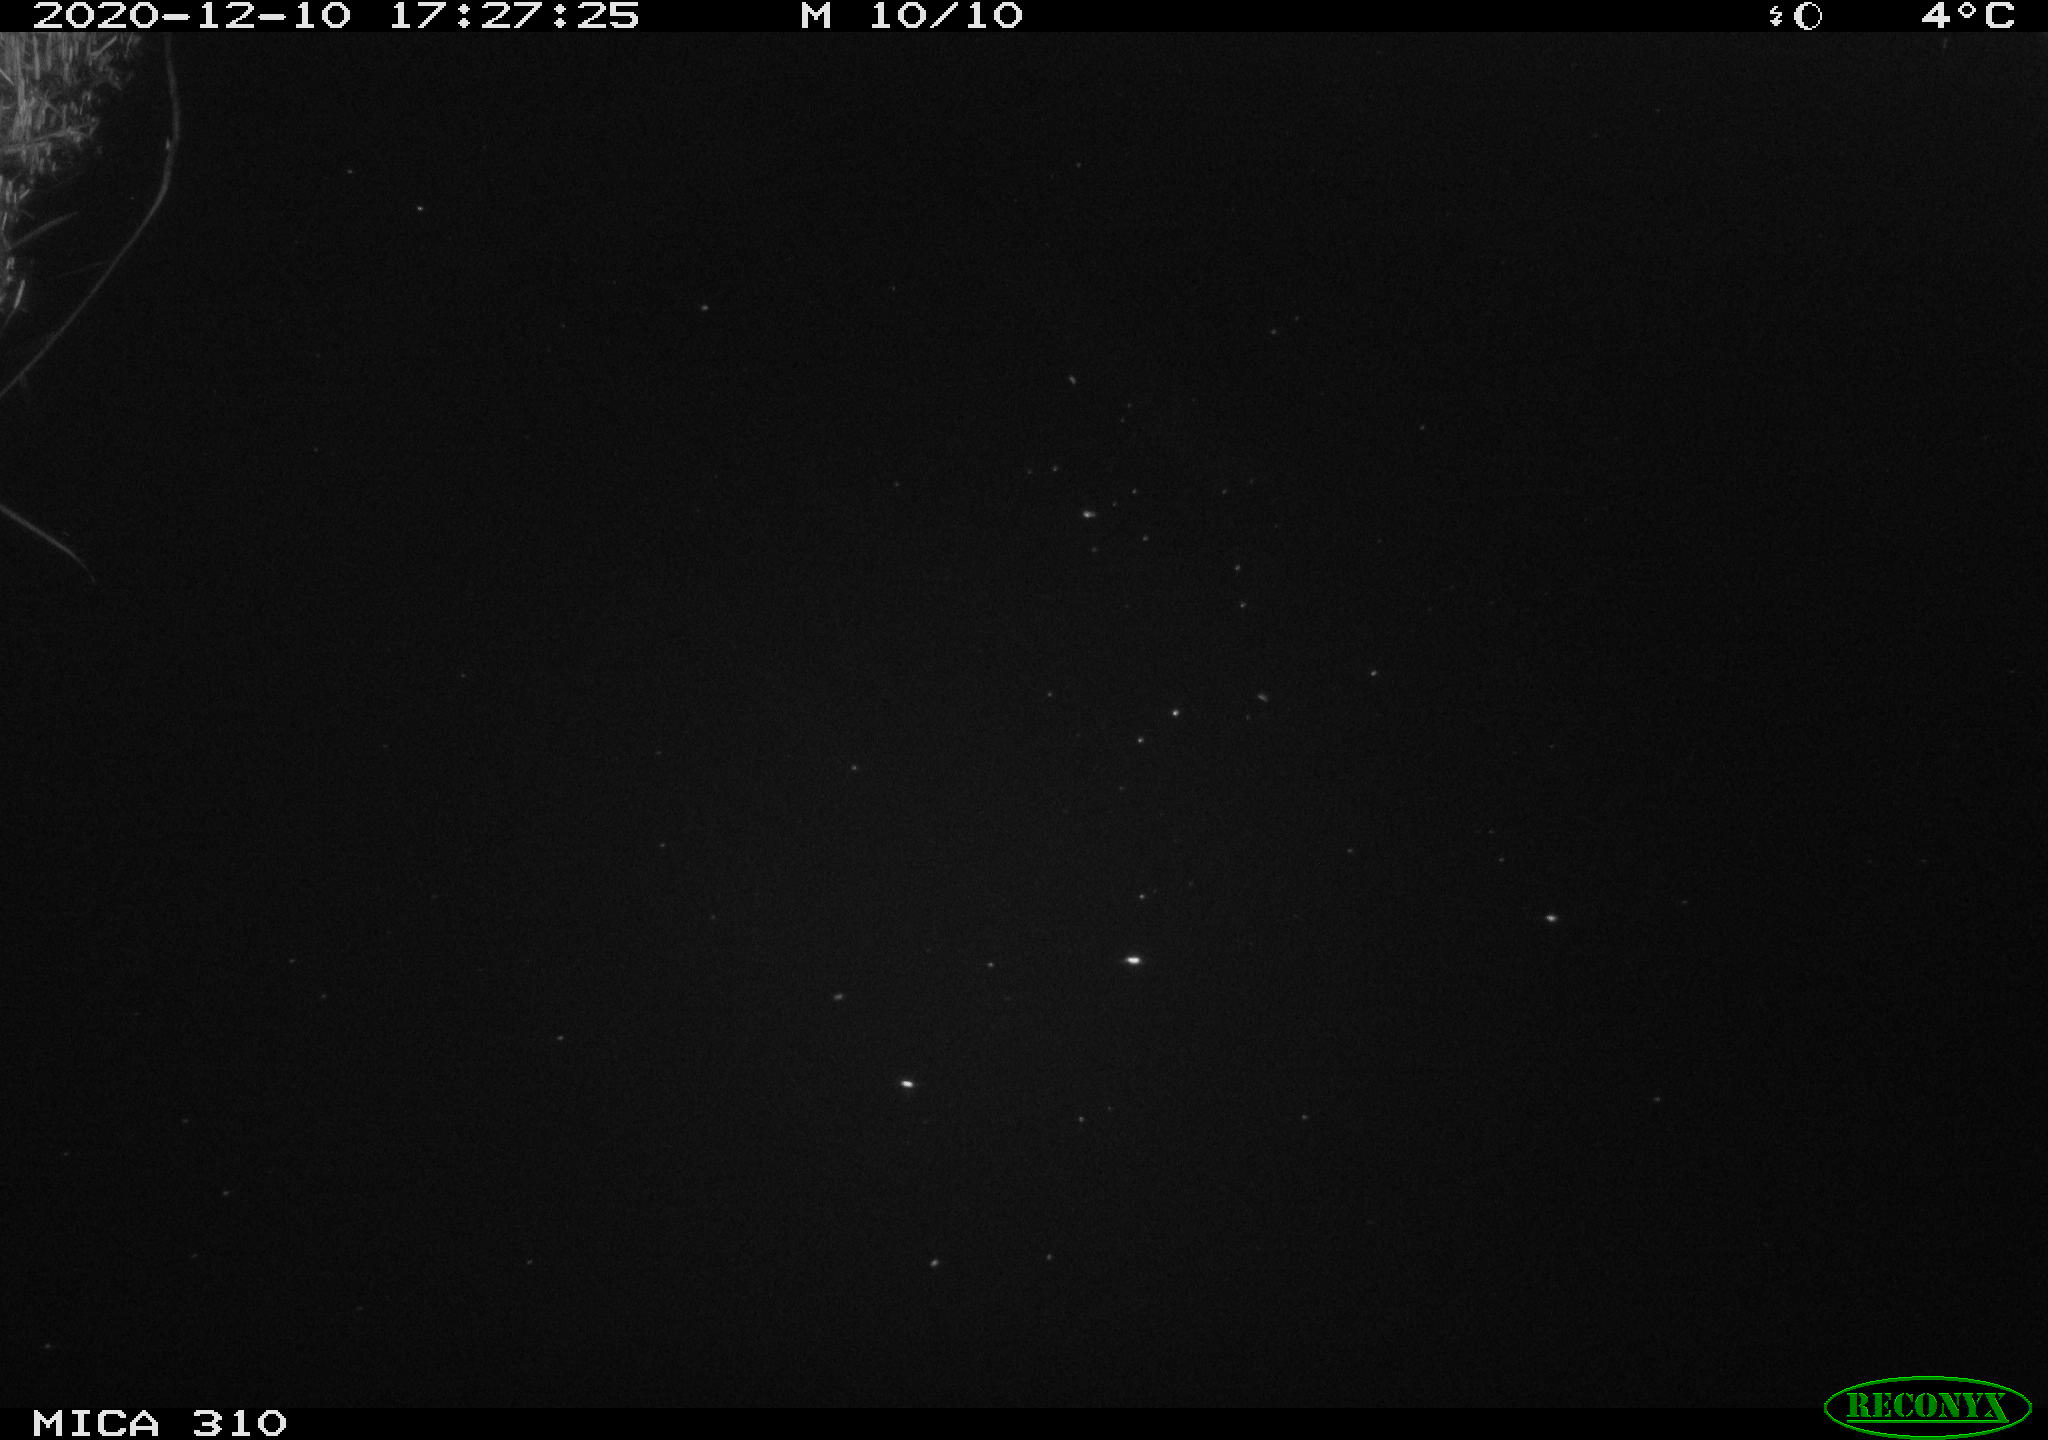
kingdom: Animalia
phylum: Chordata
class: Aves
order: Anseriformes
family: Anatidae
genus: Anas
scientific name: Anas platyrhynchos
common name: Mallard
